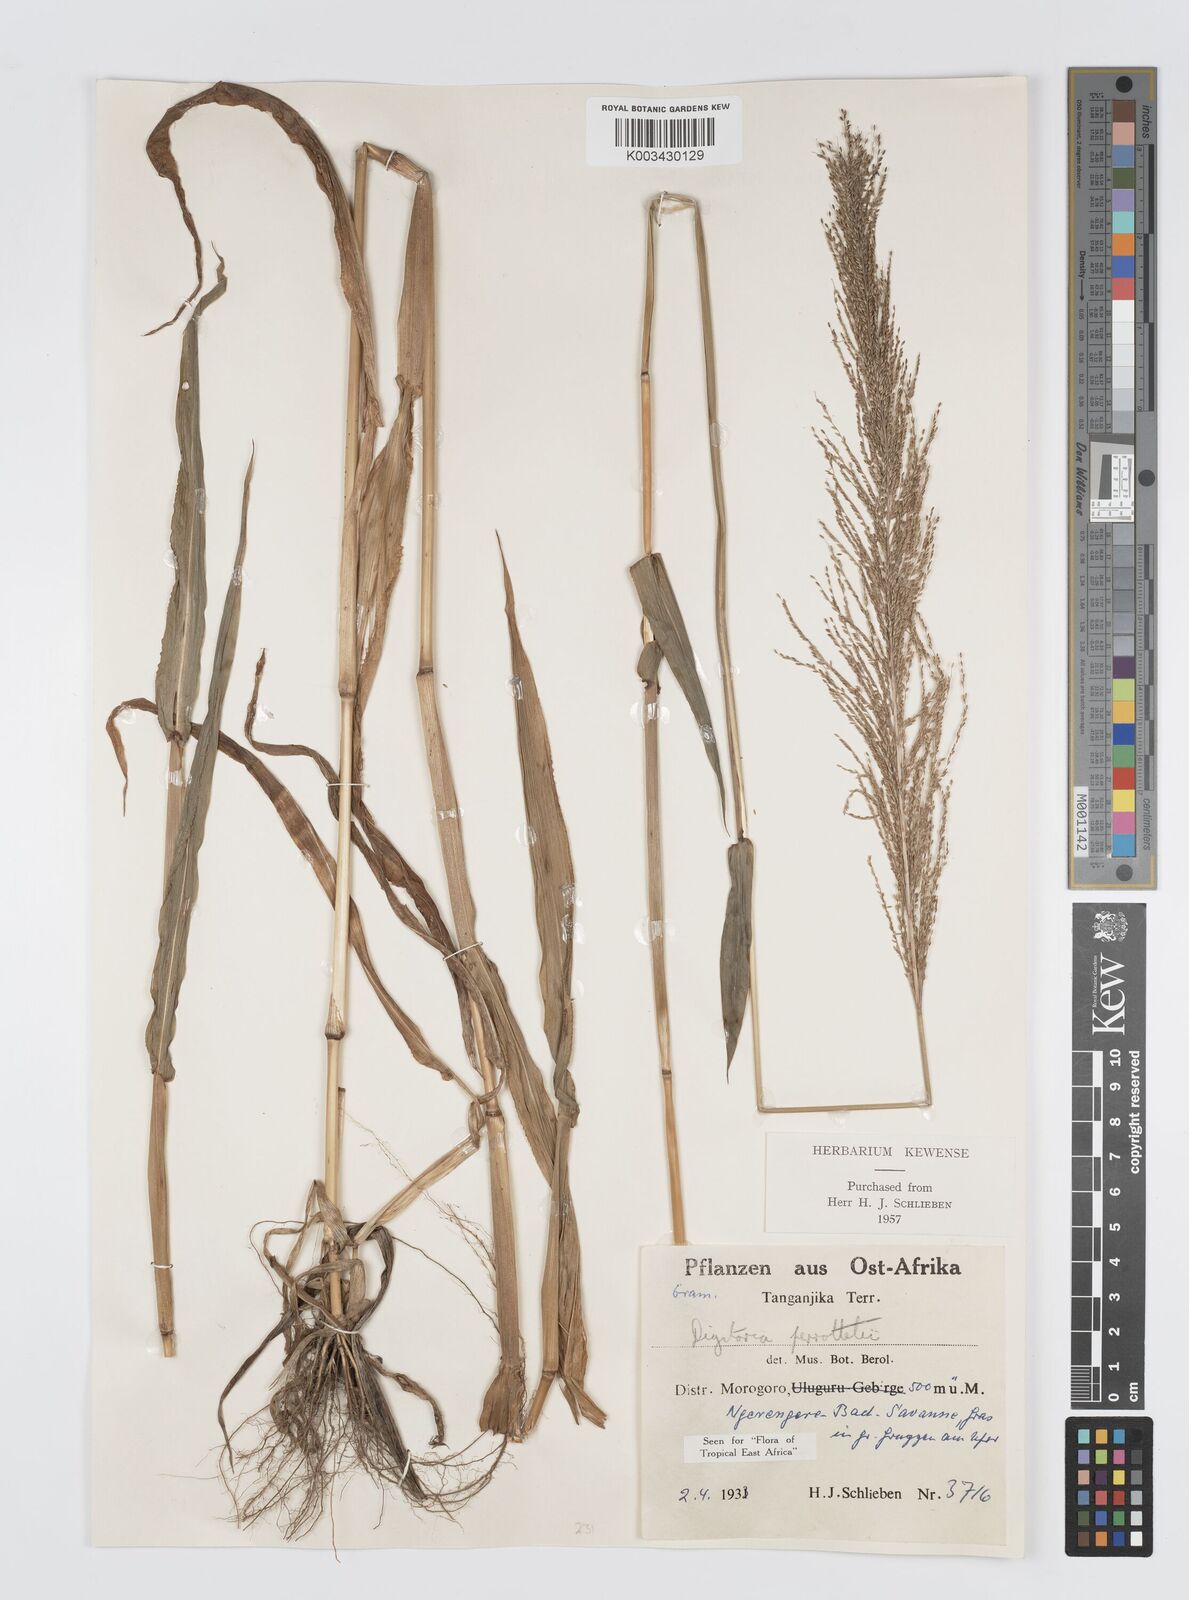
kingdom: Plantae
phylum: Tracheophyta
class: Liliopsida
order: Poales
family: Poaceae
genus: Digitaria
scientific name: Digitaria perrottetii
